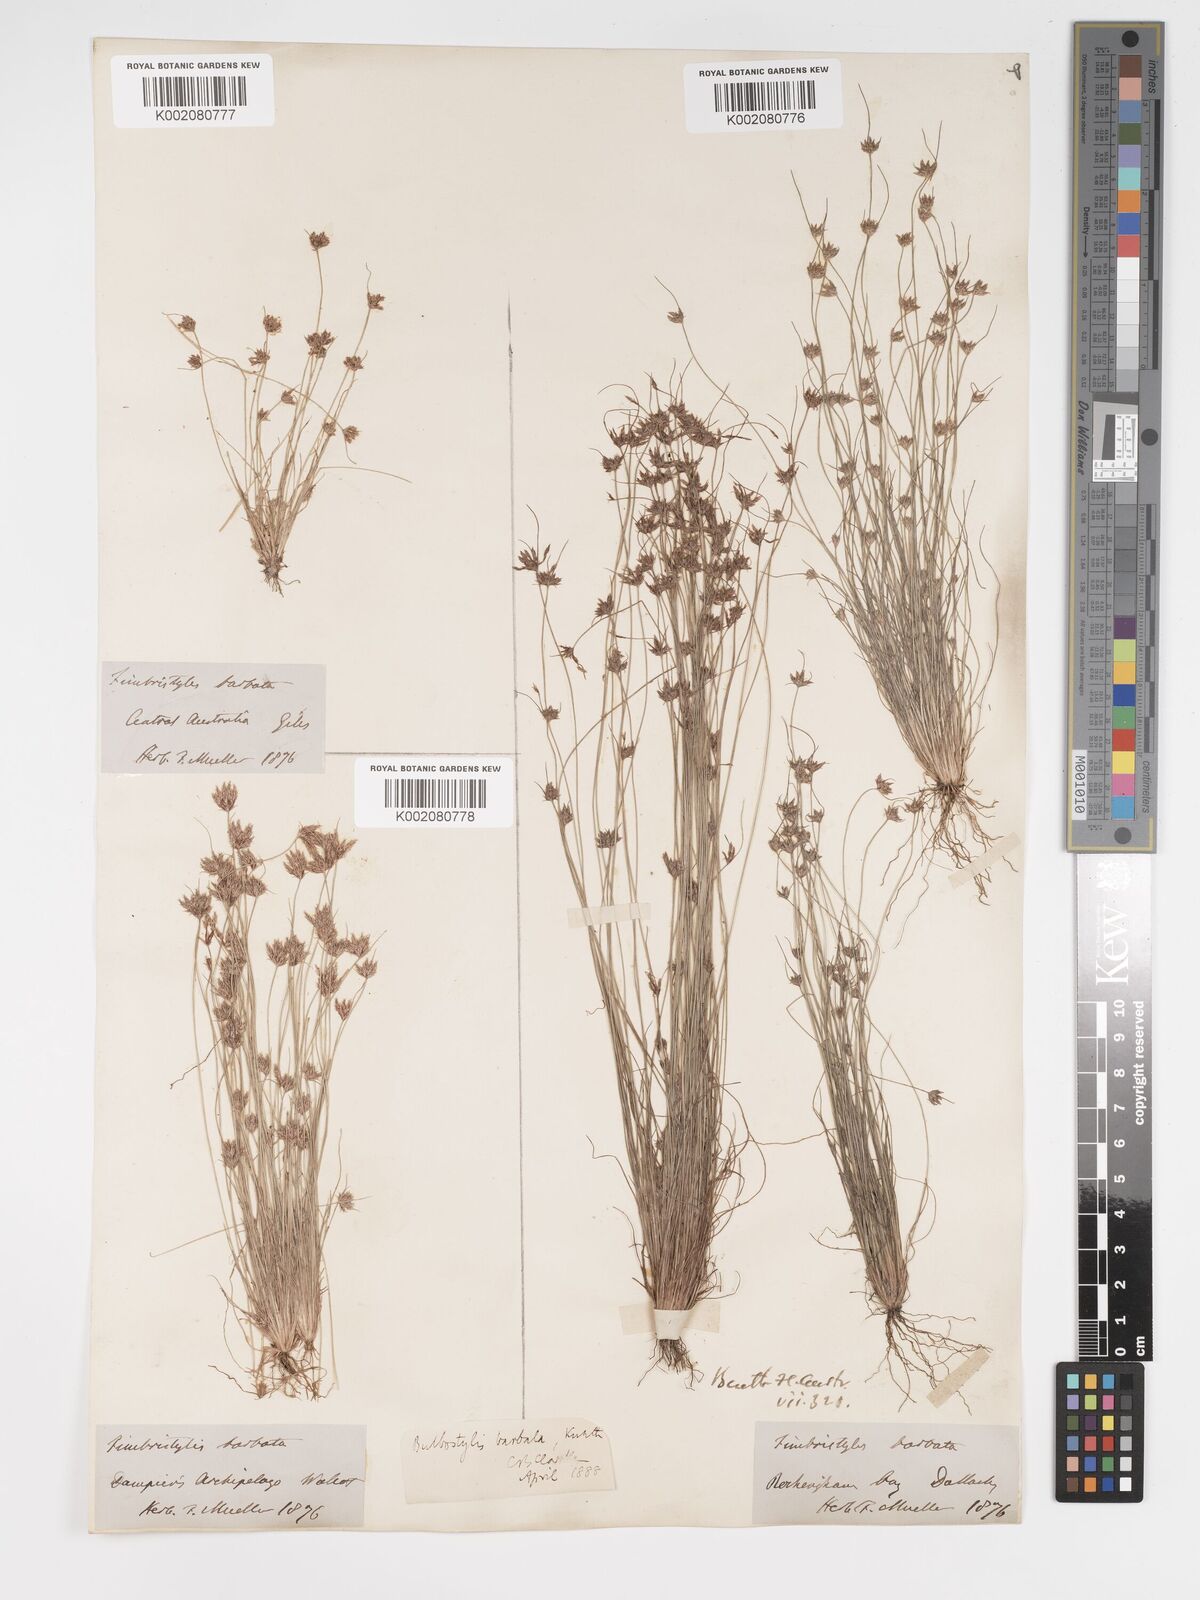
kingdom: Plantae
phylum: Tracheophyta
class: Liliopsida
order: Poales
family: Cyperaceae
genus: Bulbostylis
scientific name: Bulbostylis barbata
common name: Watergrass
